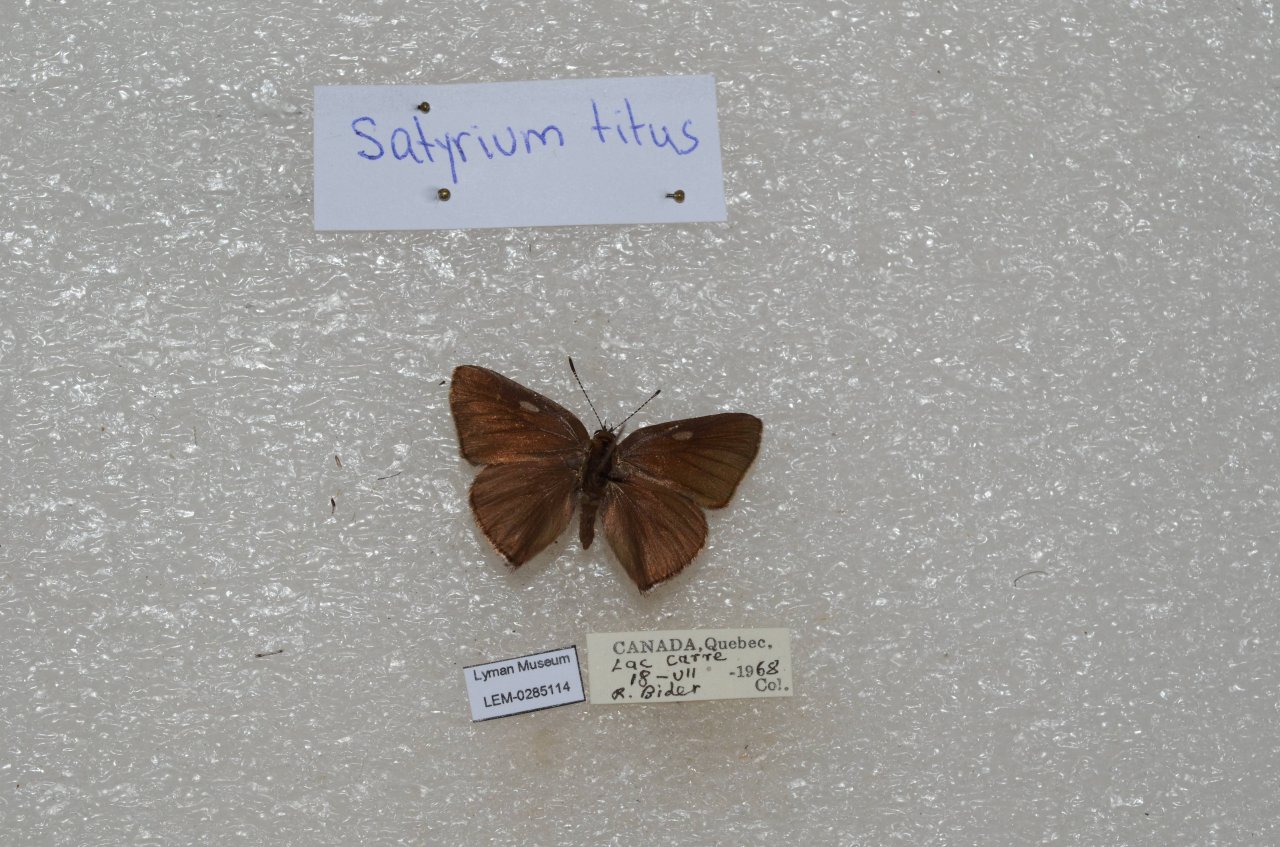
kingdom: Animalia
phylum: Arthropoda
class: Insecta
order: Lepidoptera
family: Lycaenidae
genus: Harkenclenus
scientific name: Harkenclenus titus
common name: Coral Hairstreak
